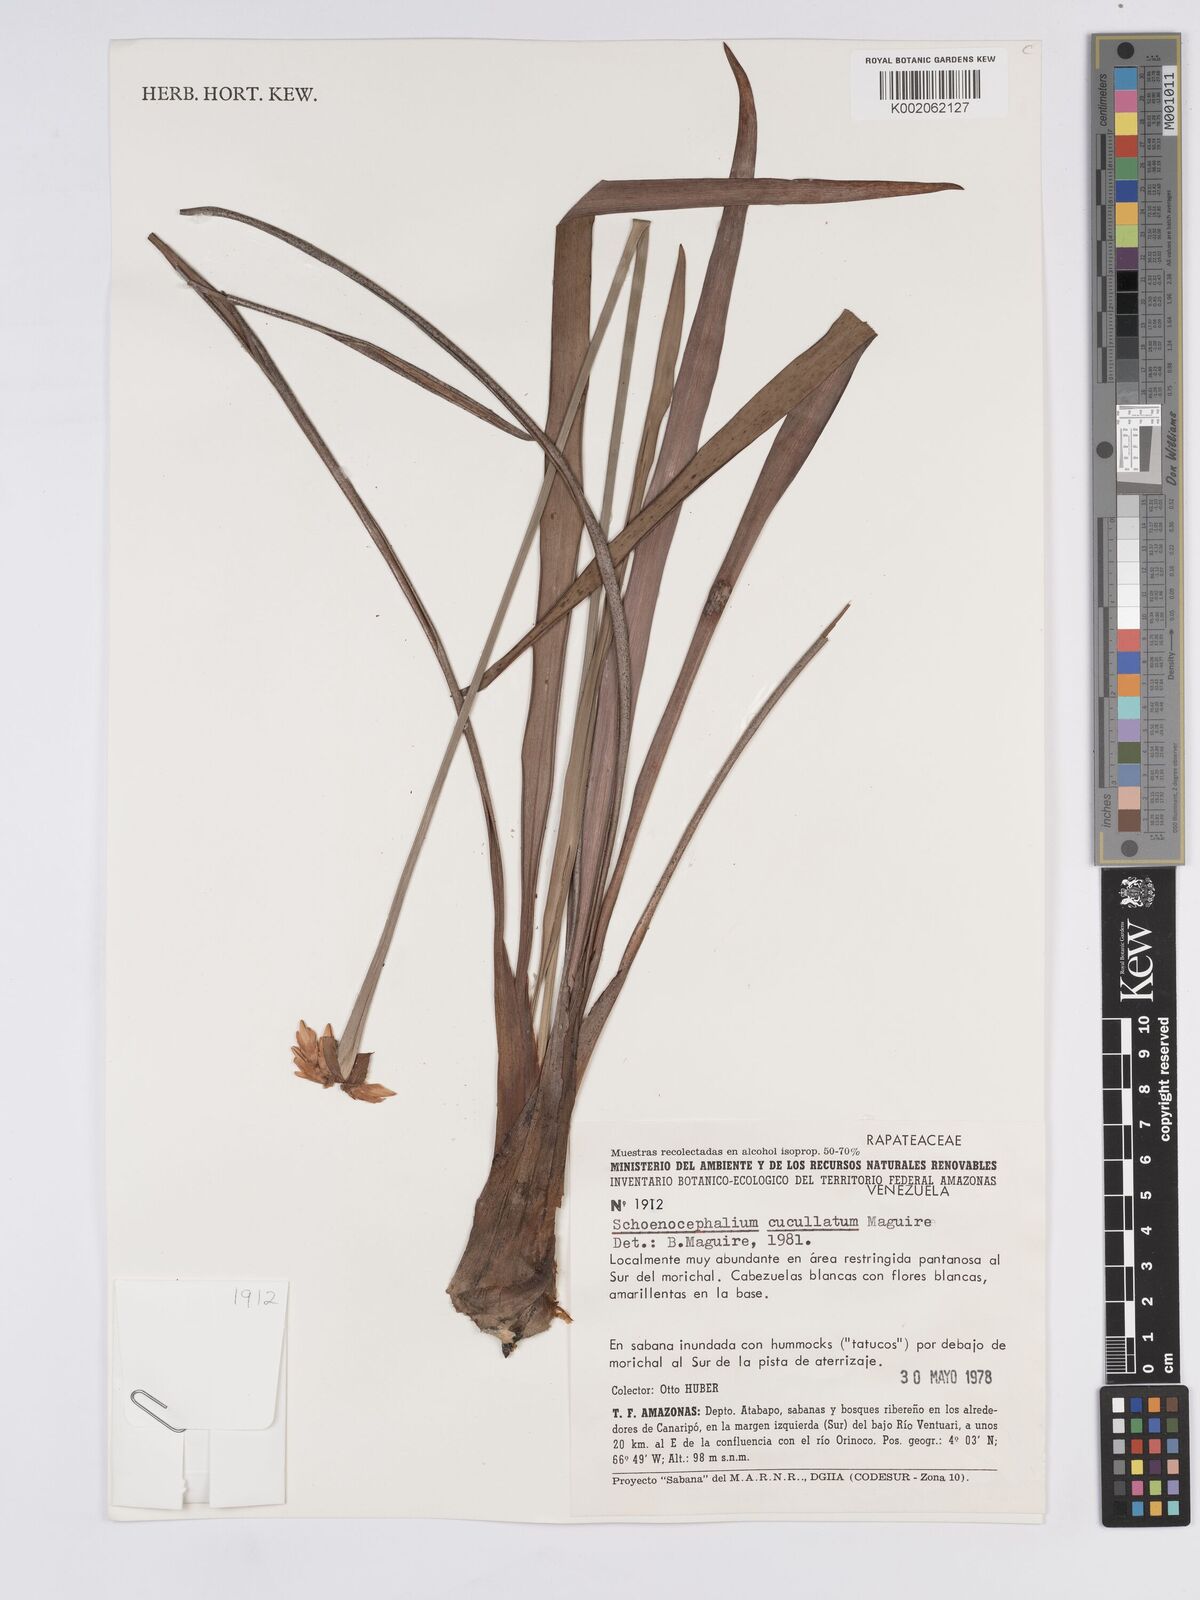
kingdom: Plantae
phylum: Tracheophyta
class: Liliopsida
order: Poales
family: Rapateaceae
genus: Schoenocephalium
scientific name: Schoenocephalium cucullatum
